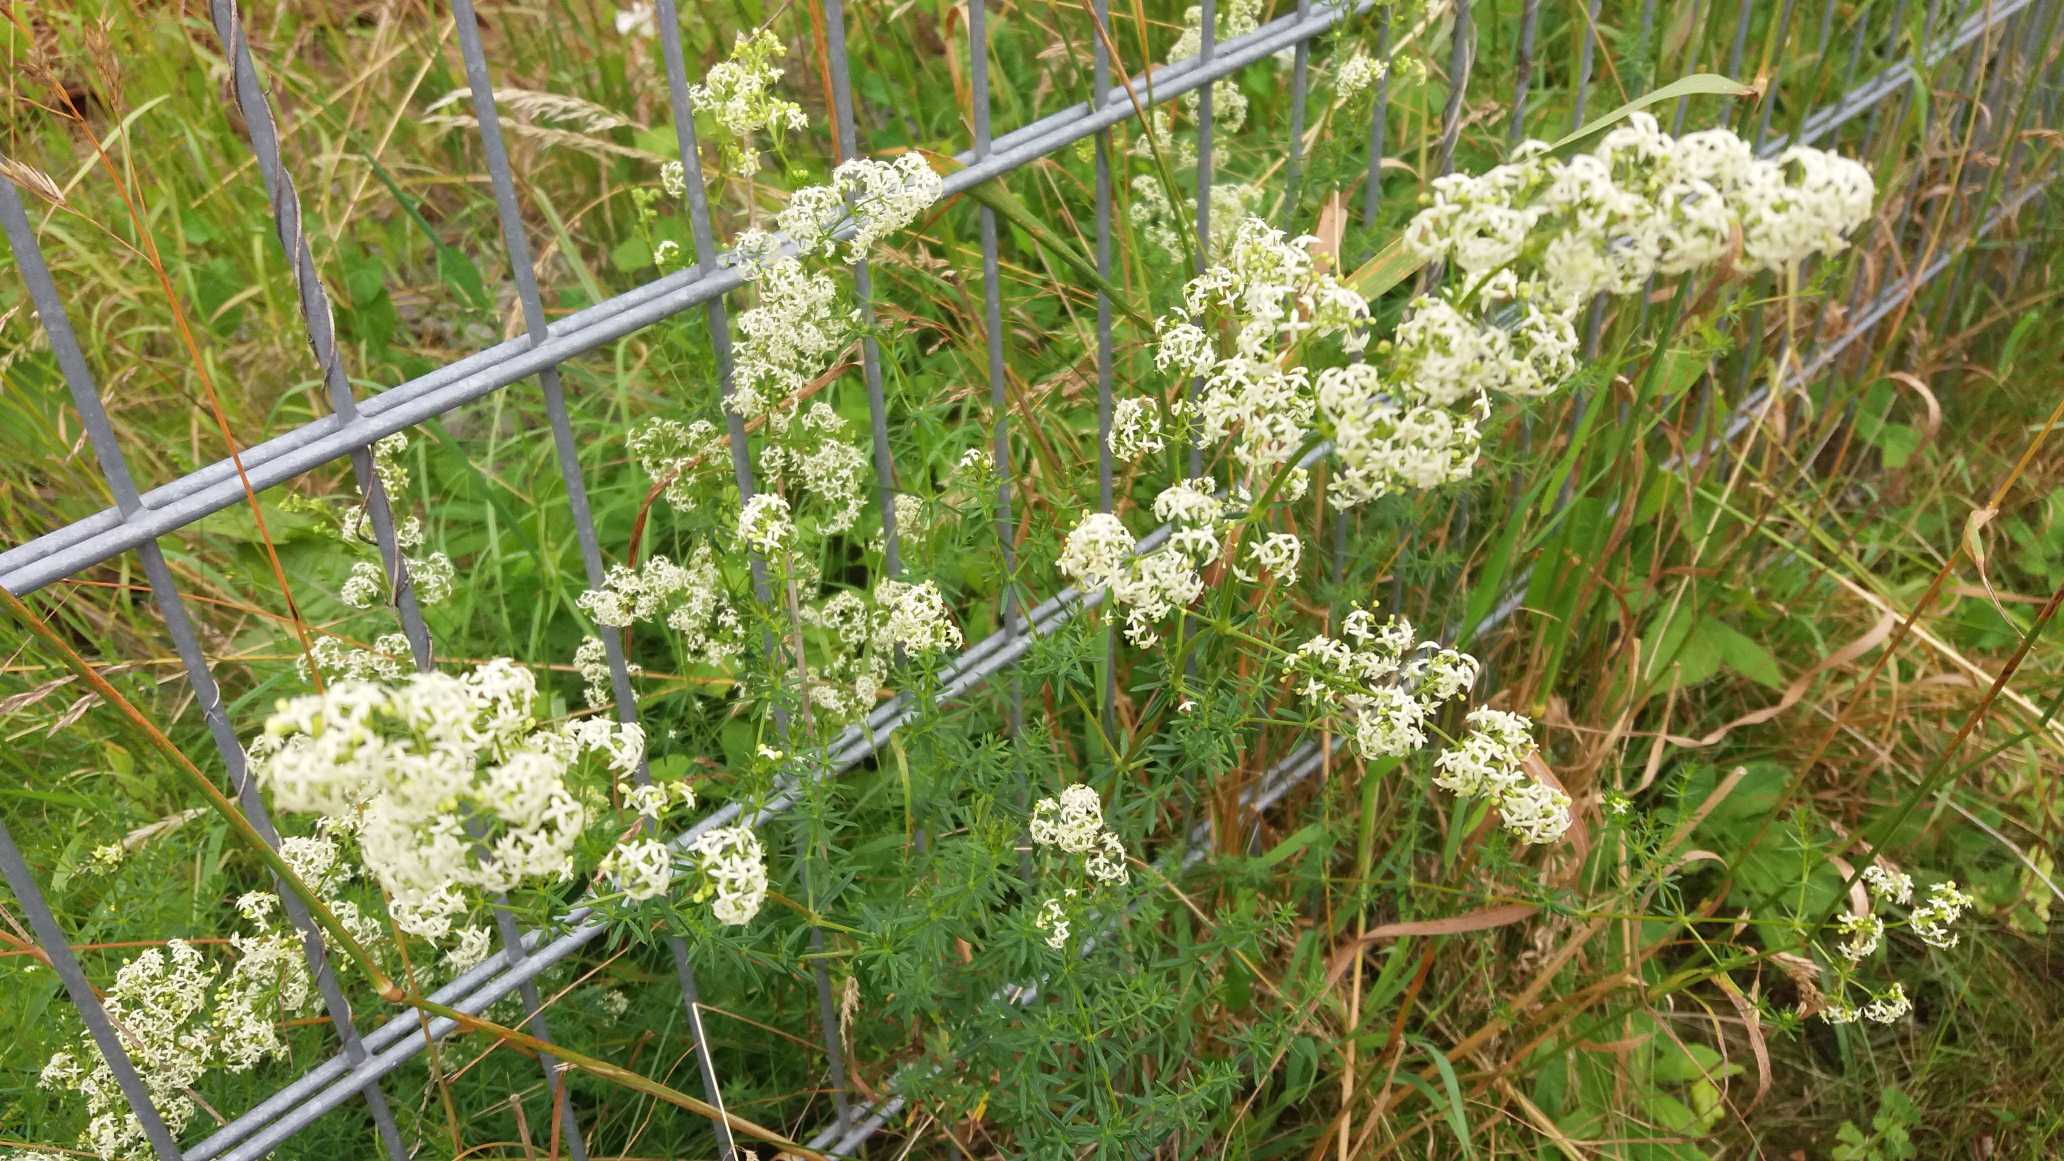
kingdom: Plantae
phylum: Tracheophyta
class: Magnoliopsida
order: Gentianales
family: Rubiaceae
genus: Galium
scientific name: Galium mollugo
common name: Hvid snerre
